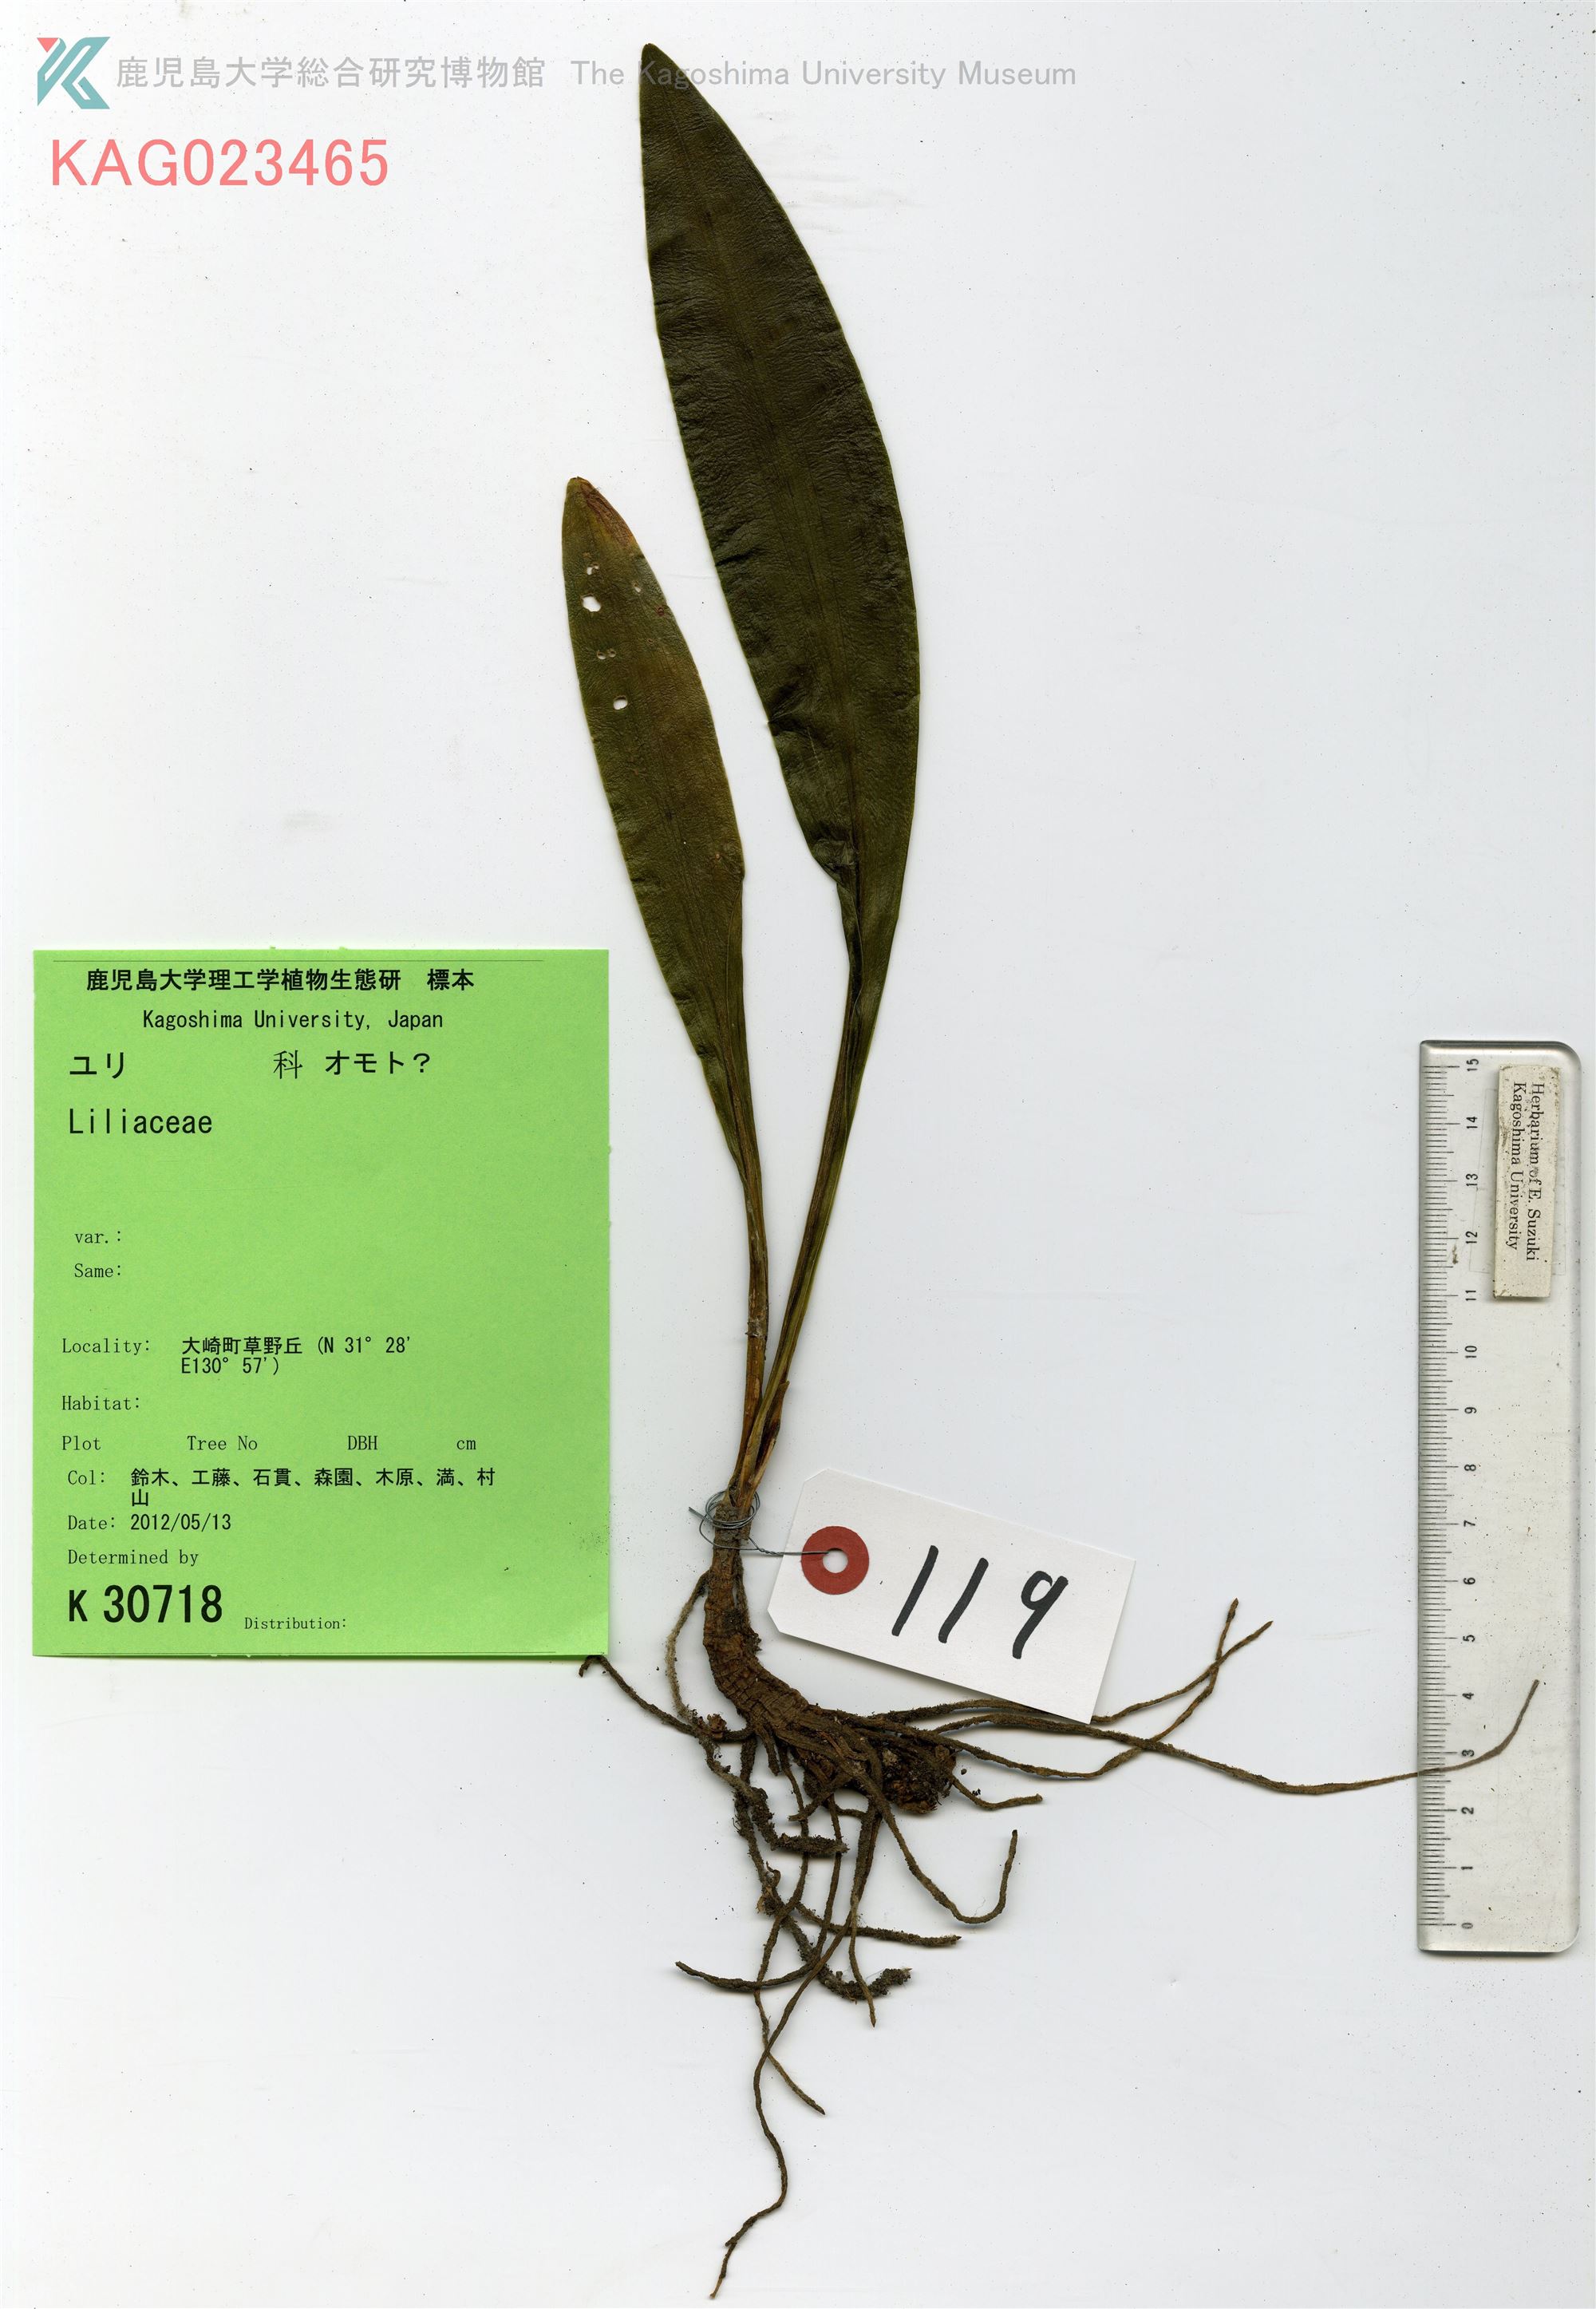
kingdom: Plantae
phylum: Tracheophyta
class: Liliopsida
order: Asparagales
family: Asparagaceae
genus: Rohdea
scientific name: Rohdea japonica
